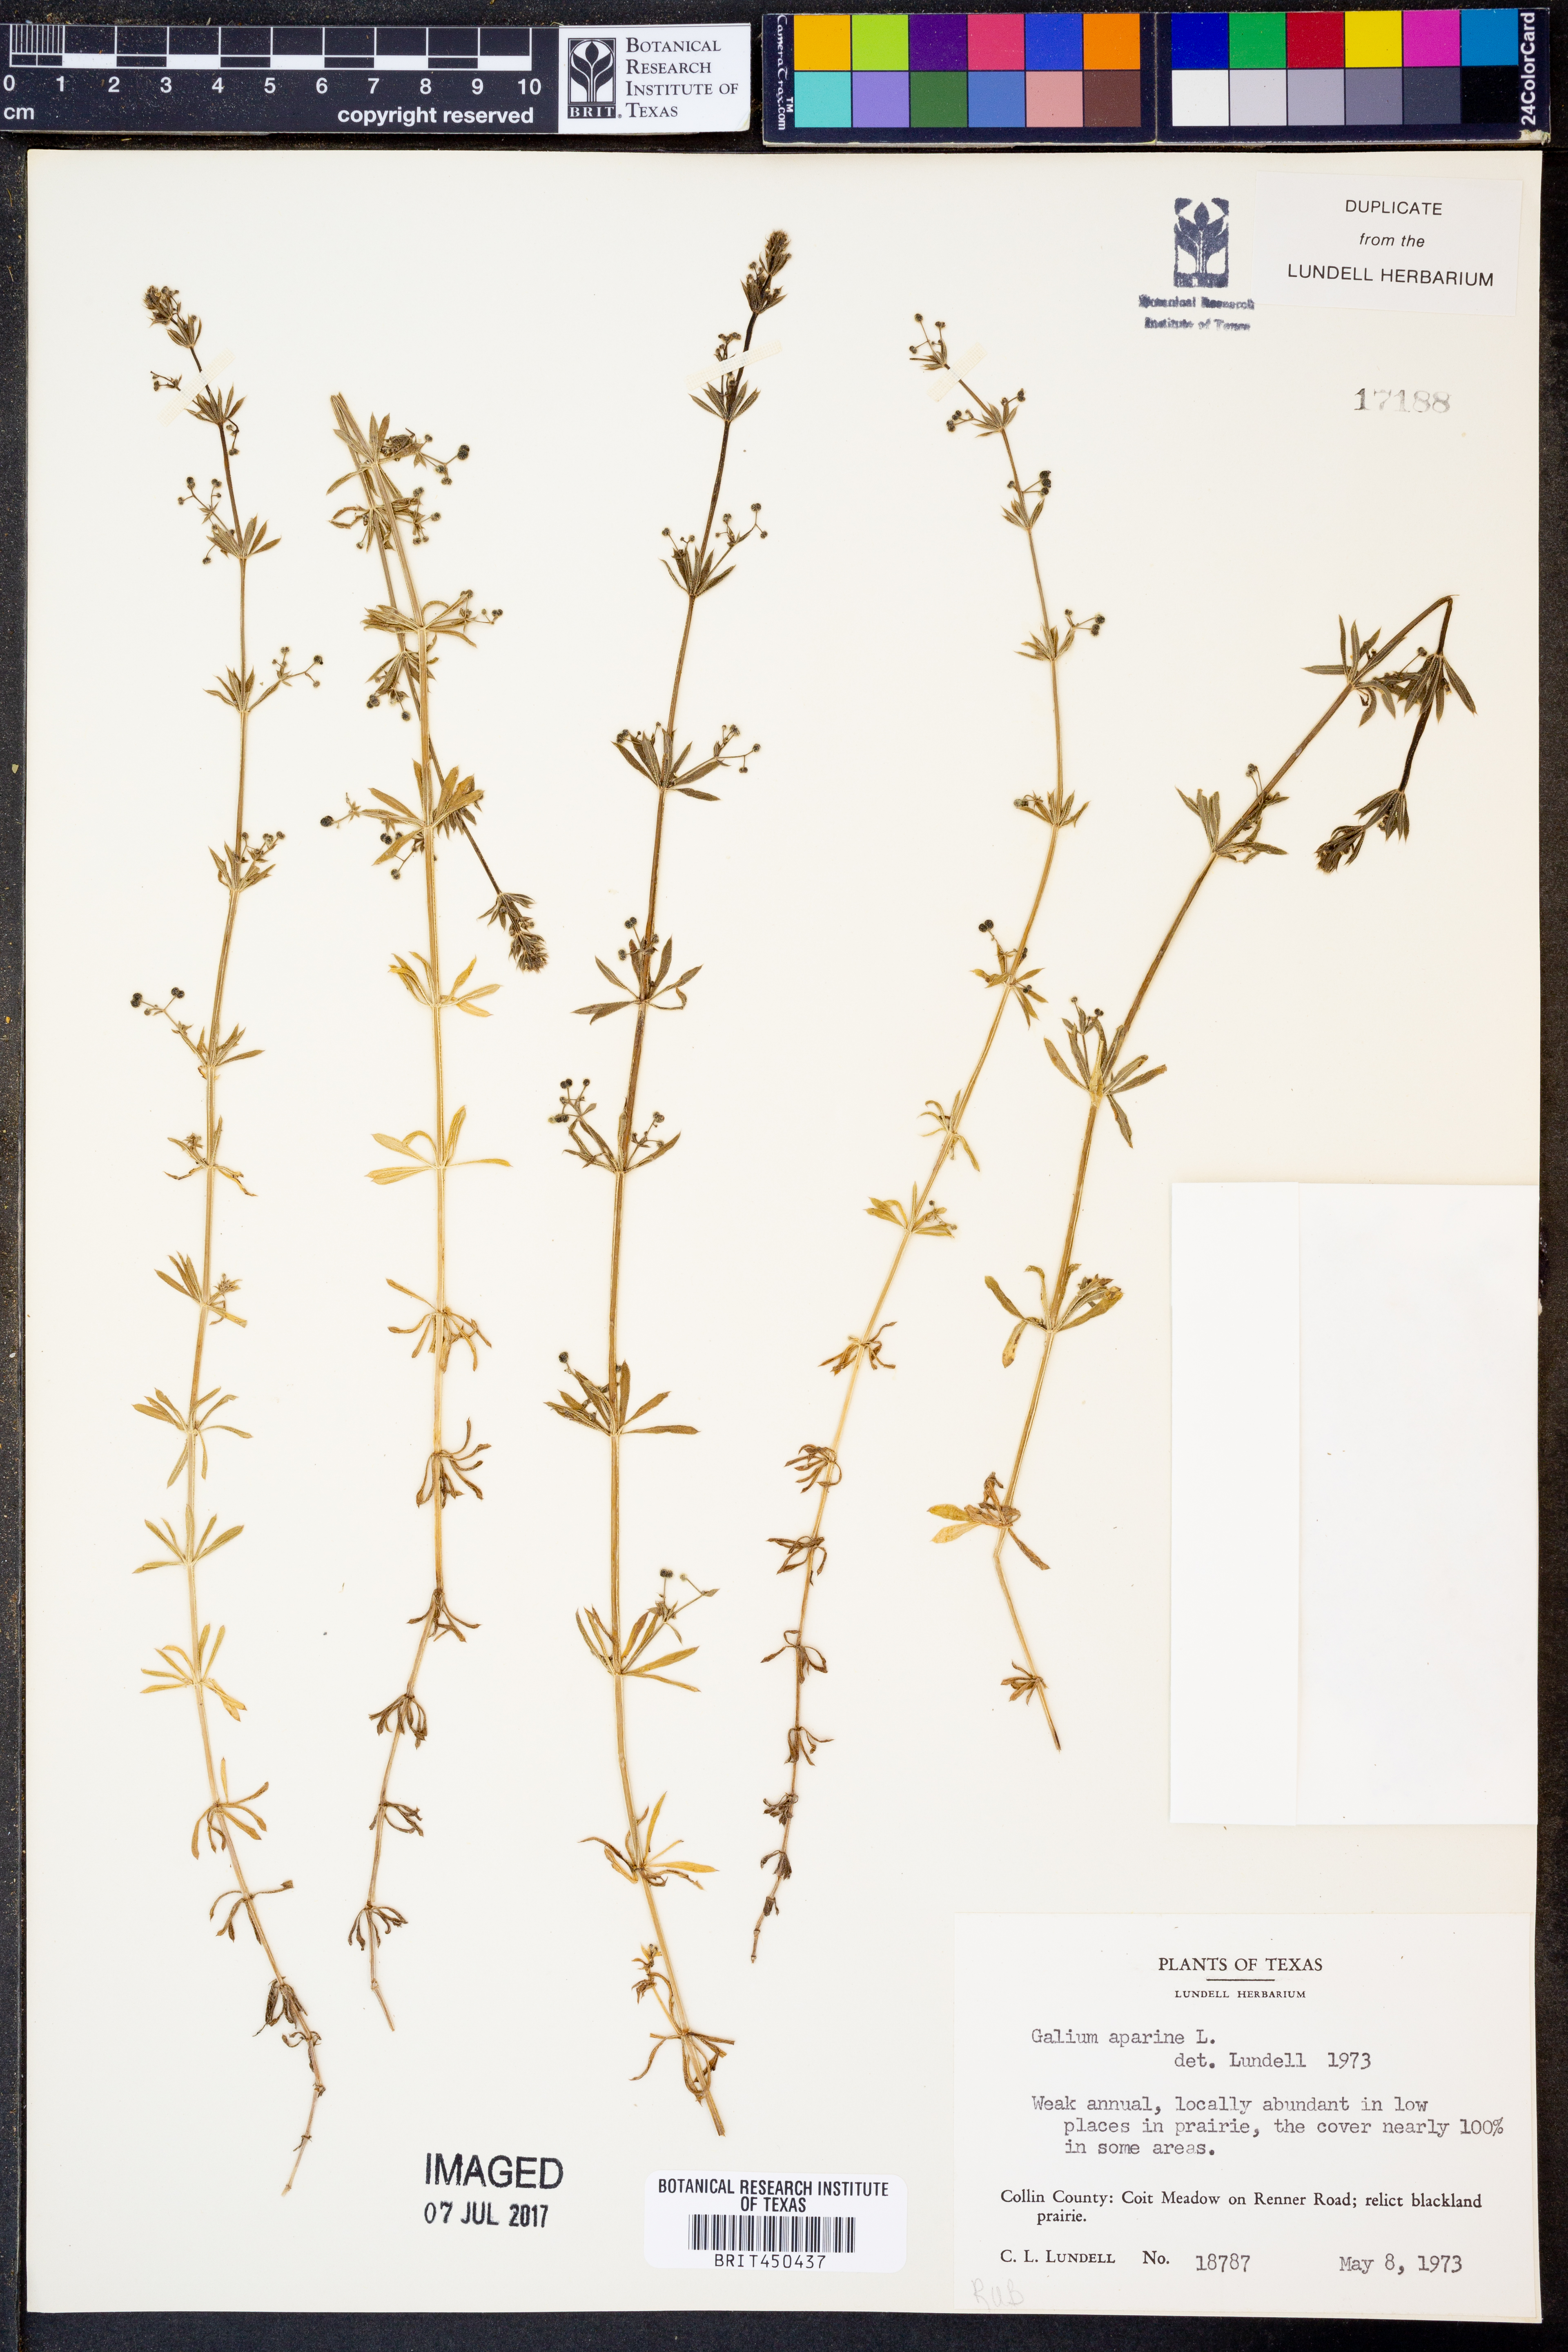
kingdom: Plantae
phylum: Tracheophyta
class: Magnoliopsida
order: Gentianales
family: Rubiaceae
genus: Galium
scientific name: Galium aparine
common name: Cleavers
